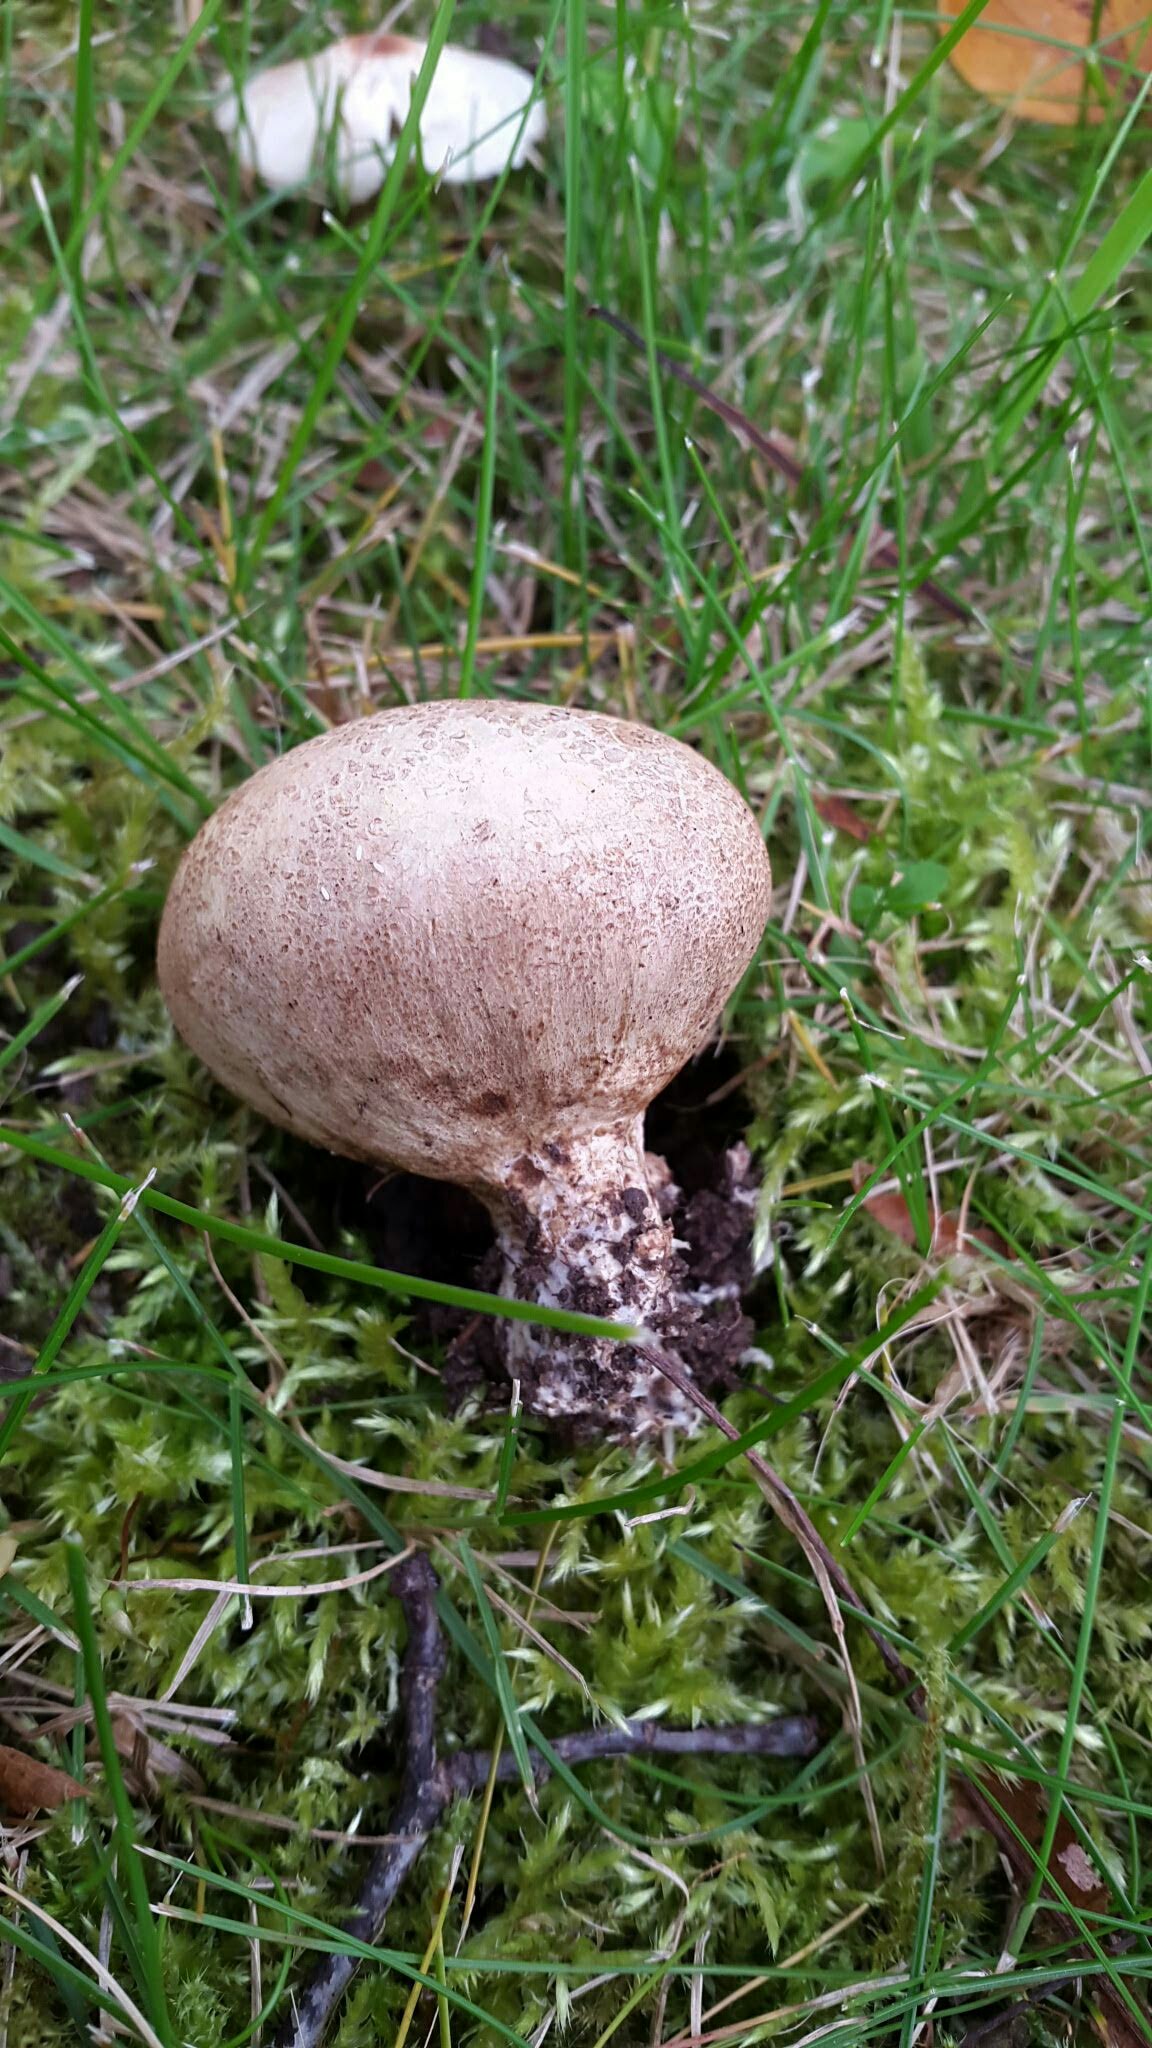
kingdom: Fungi
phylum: Basidiomycota
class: Agaricomycetes
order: Boletales
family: Sclerodermataceae
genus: Scleroderma
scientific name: Scleroderma
